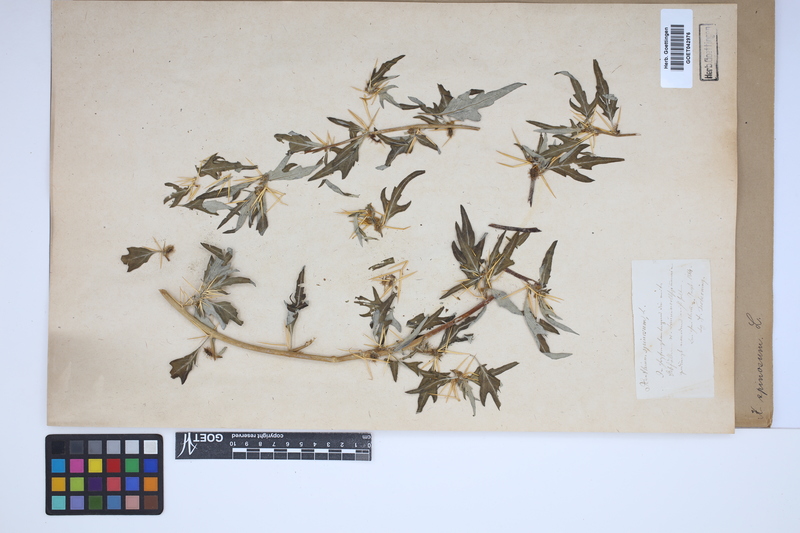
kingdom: Plantae
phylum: Tracheophyta
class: Magnoliopsida
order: Asterales
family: Asteraceae
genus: Xanthium
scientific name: Xanthium spinosum
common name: Spiny cocklebur
